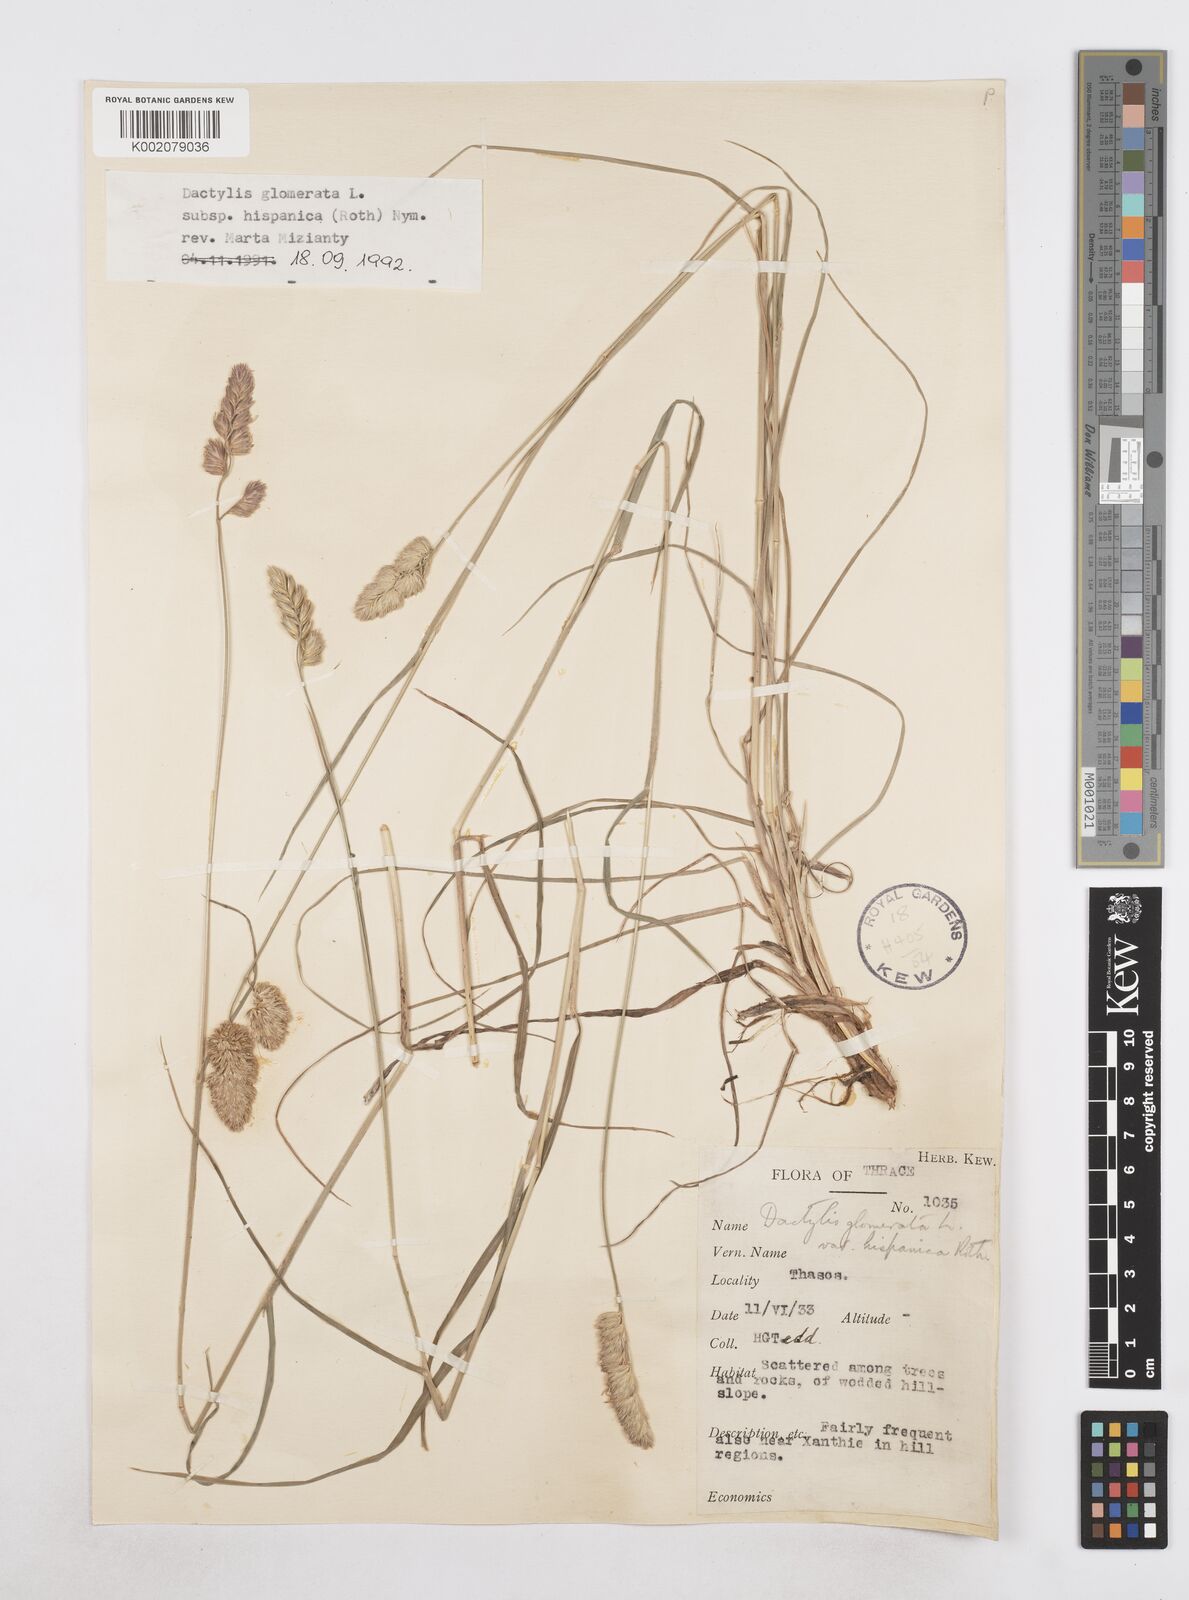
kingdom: Plantae
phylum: Tracheophyta
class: Liliopsida
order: Poales
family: Poaceae
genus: Dactylis
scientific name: Dactylis glomerata
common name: Orchardgrass
